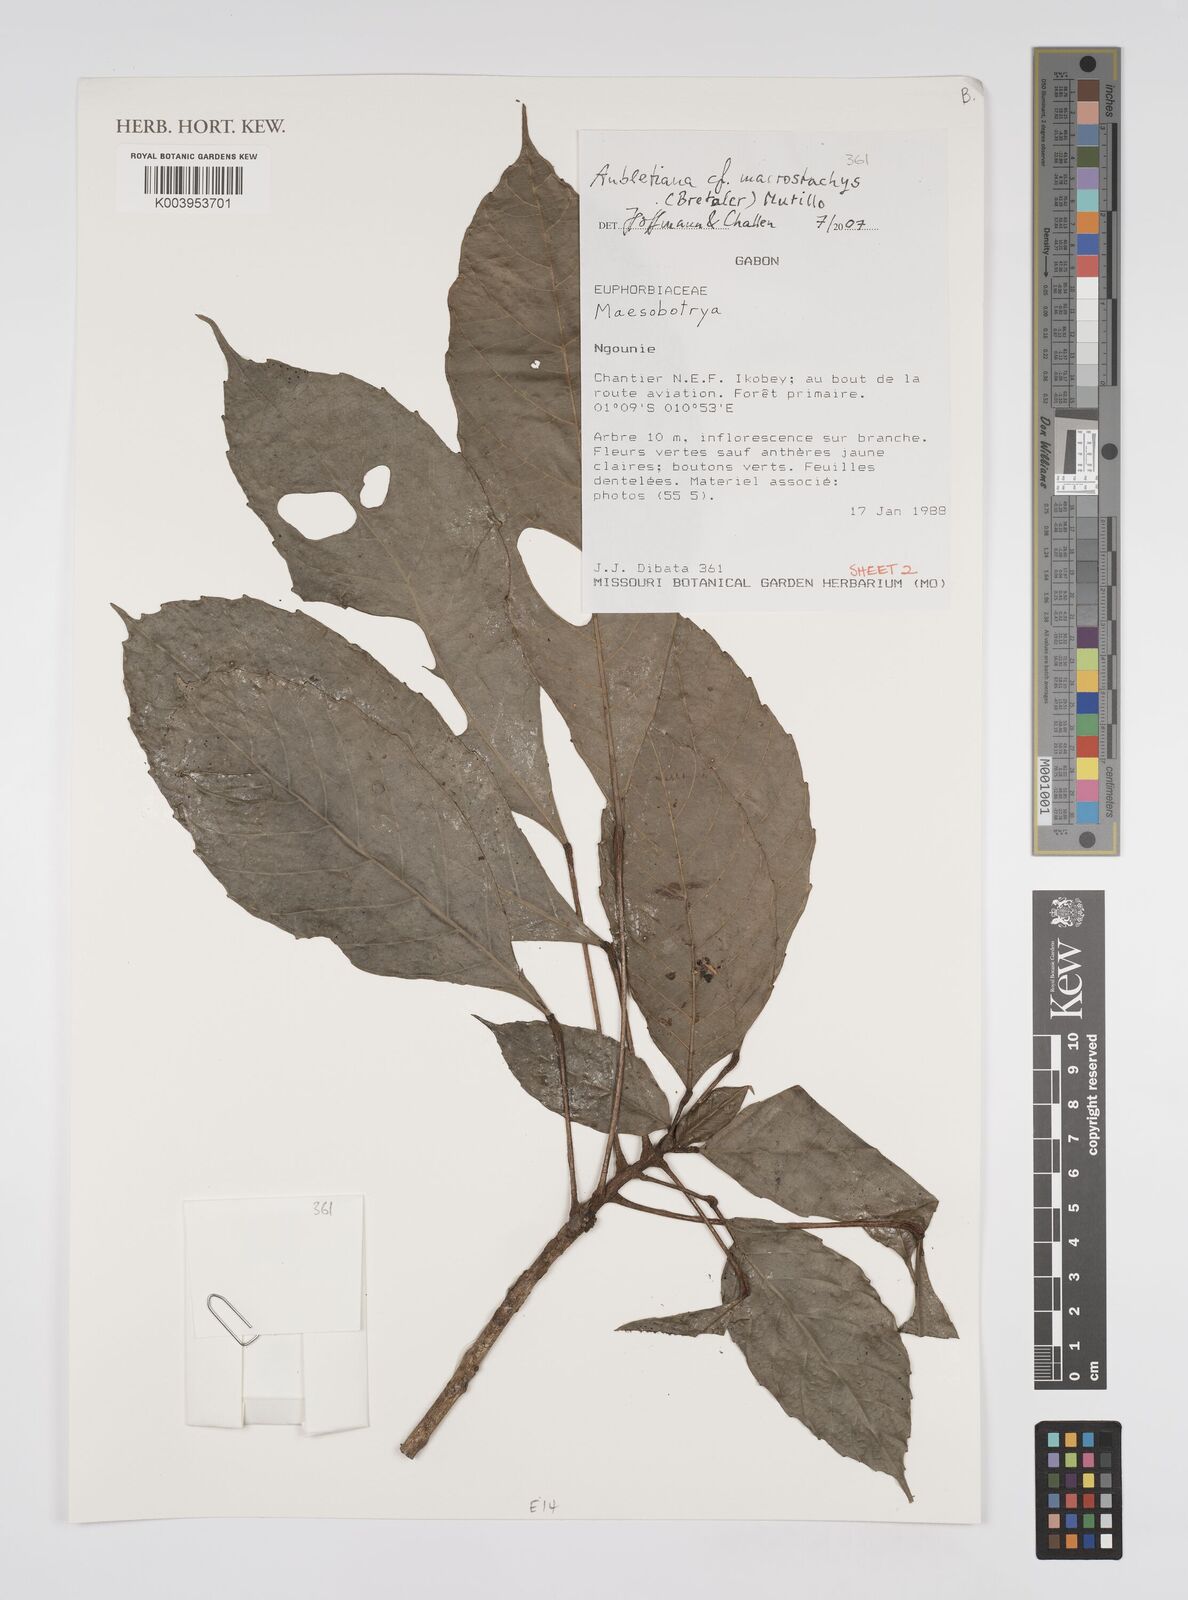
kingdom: Plantae
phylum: Tracheophyta
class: Magnoliopsida
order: Malpighiales
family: Euphorbiaceae
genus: Aubletiana
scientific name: Aubletiana macrostachys
